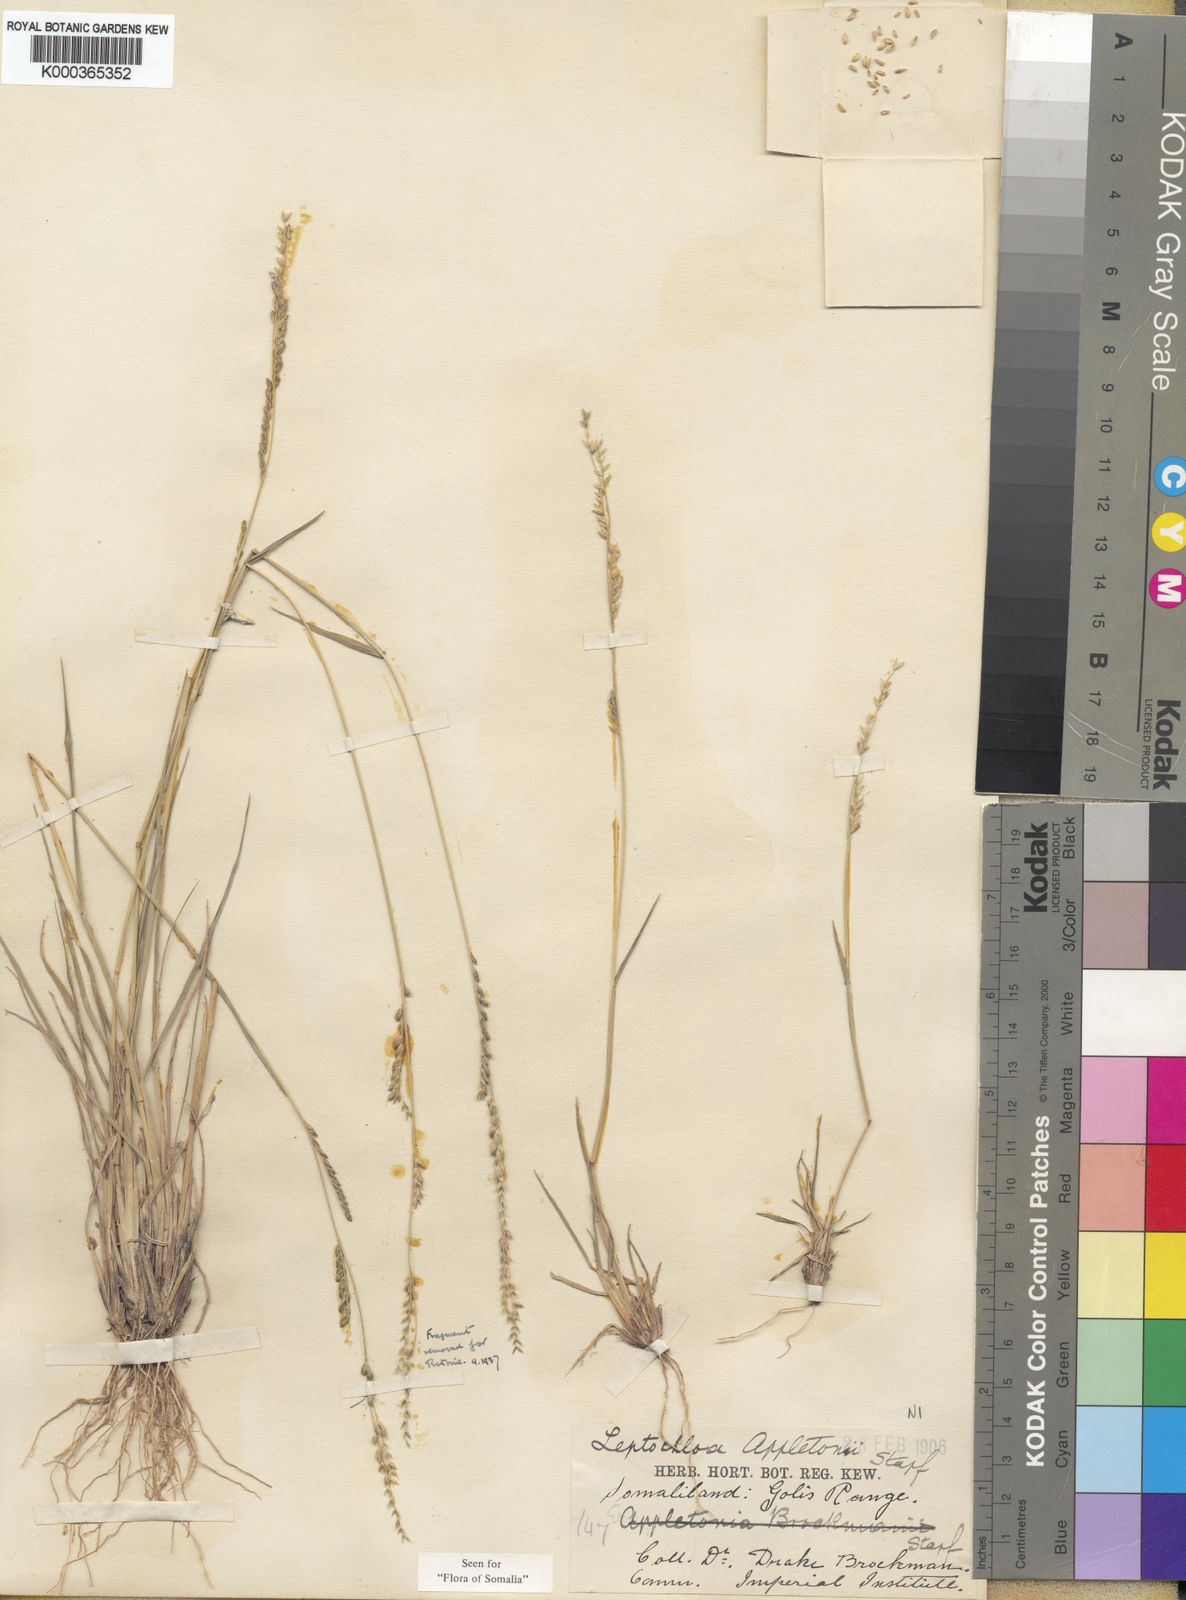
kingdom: Plantae
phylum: Tracheophyta
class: Liliopsida
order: Poales
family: Poaceae
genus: Disakisperma
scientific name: Disakisperma yemenicum
